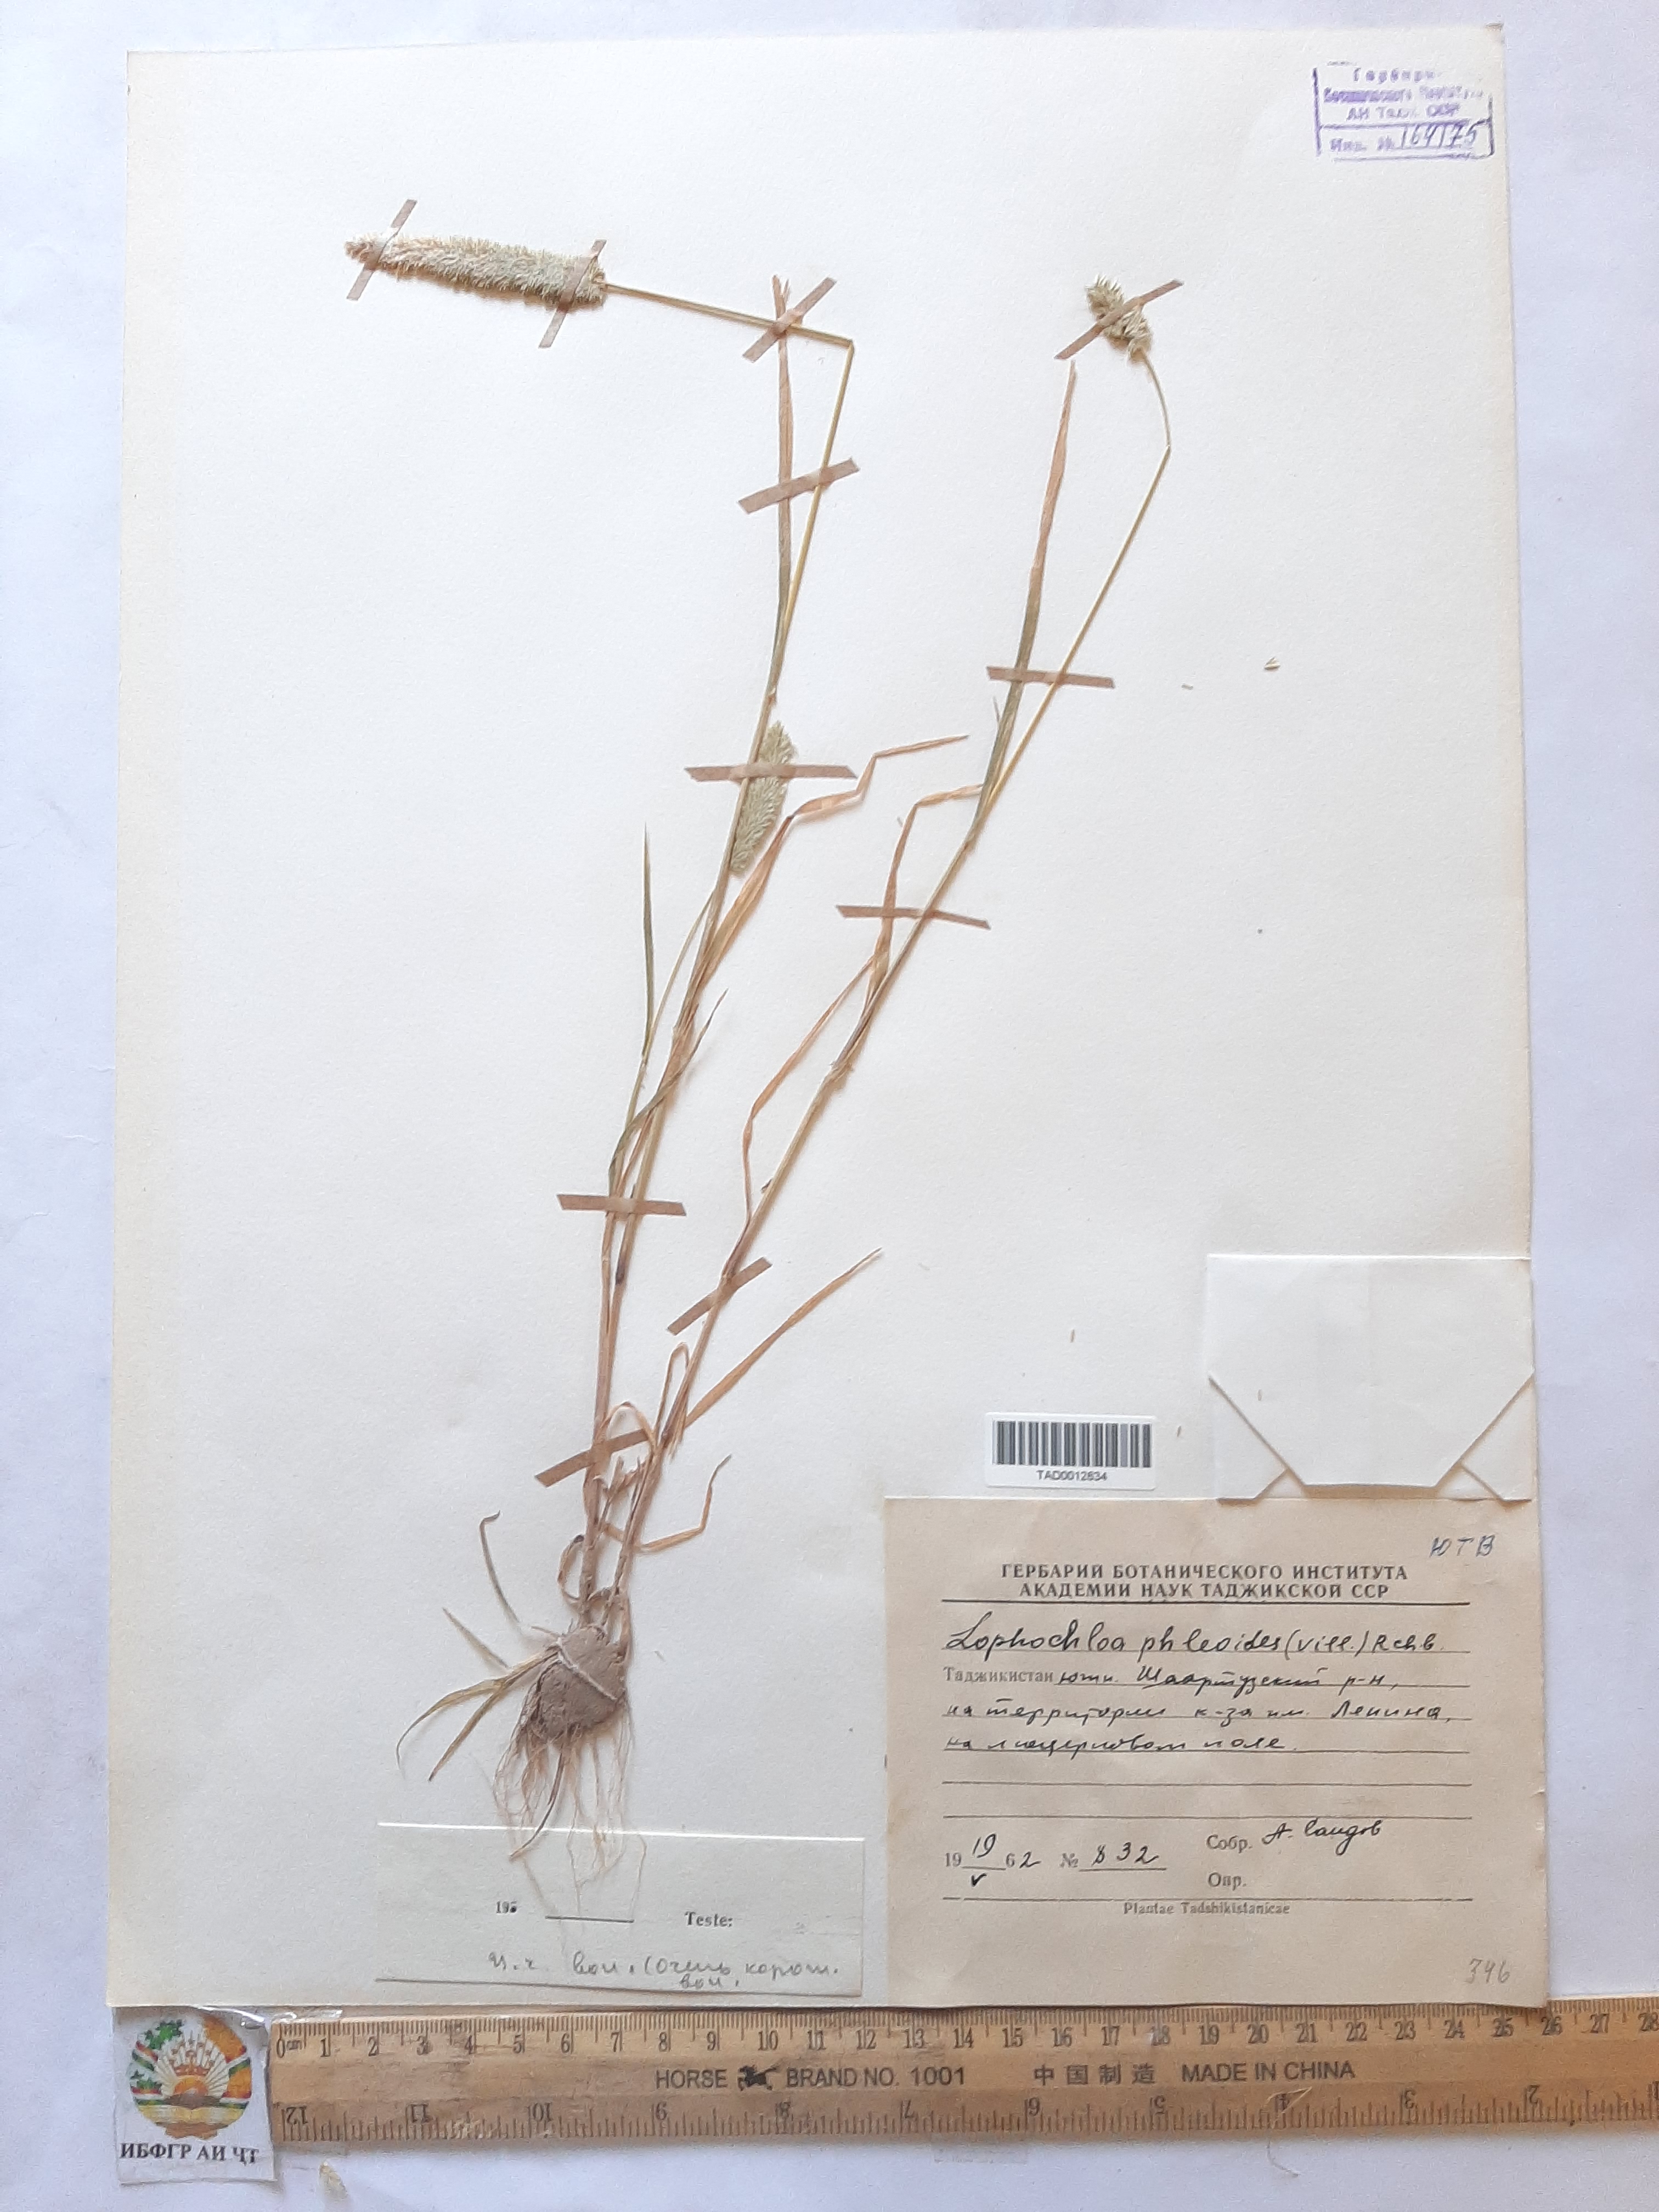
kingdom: Plantae
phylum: Tracheophyta
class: Liliopsida
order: Poales
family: Poaceae
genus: Rostraria
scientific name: Rostraria cristata
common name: Mediterranean hair-grass
